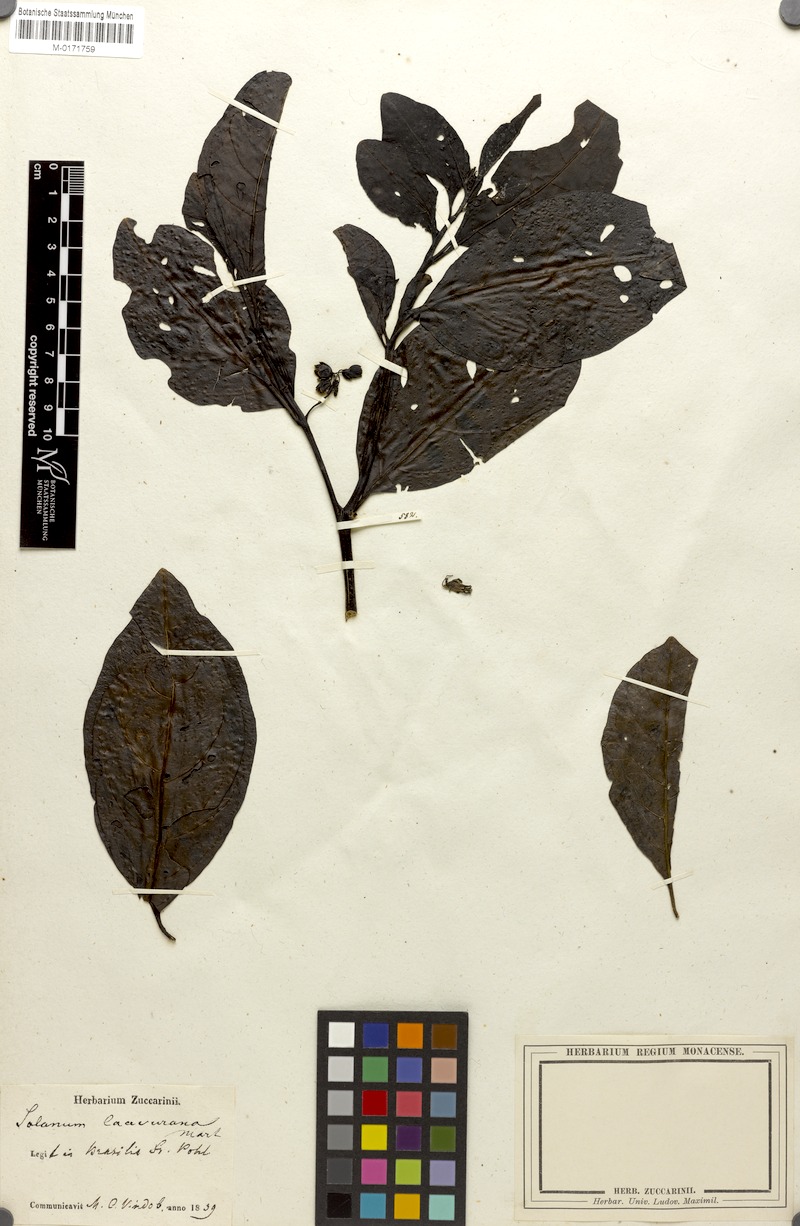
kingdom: Plantae
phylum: Tracheophyta
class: Magnoliopsida
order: Solanales
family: Solanaceae
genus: Solanum
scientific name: Solanum caavurana
